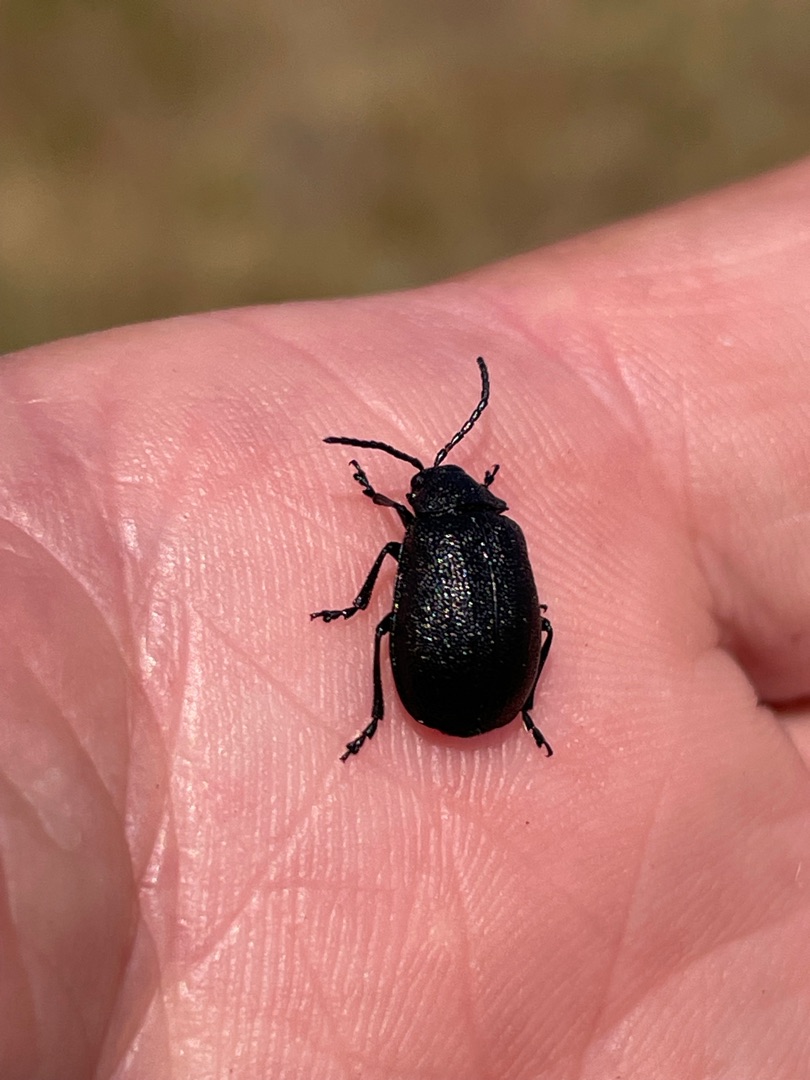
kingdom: Animalia
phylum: Arthropoda
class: Insecta
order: Coleoptera
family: Chrysomelidae
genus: Galeruca
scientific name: Galeruca tanaceti
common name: Rejnfanbladbille
